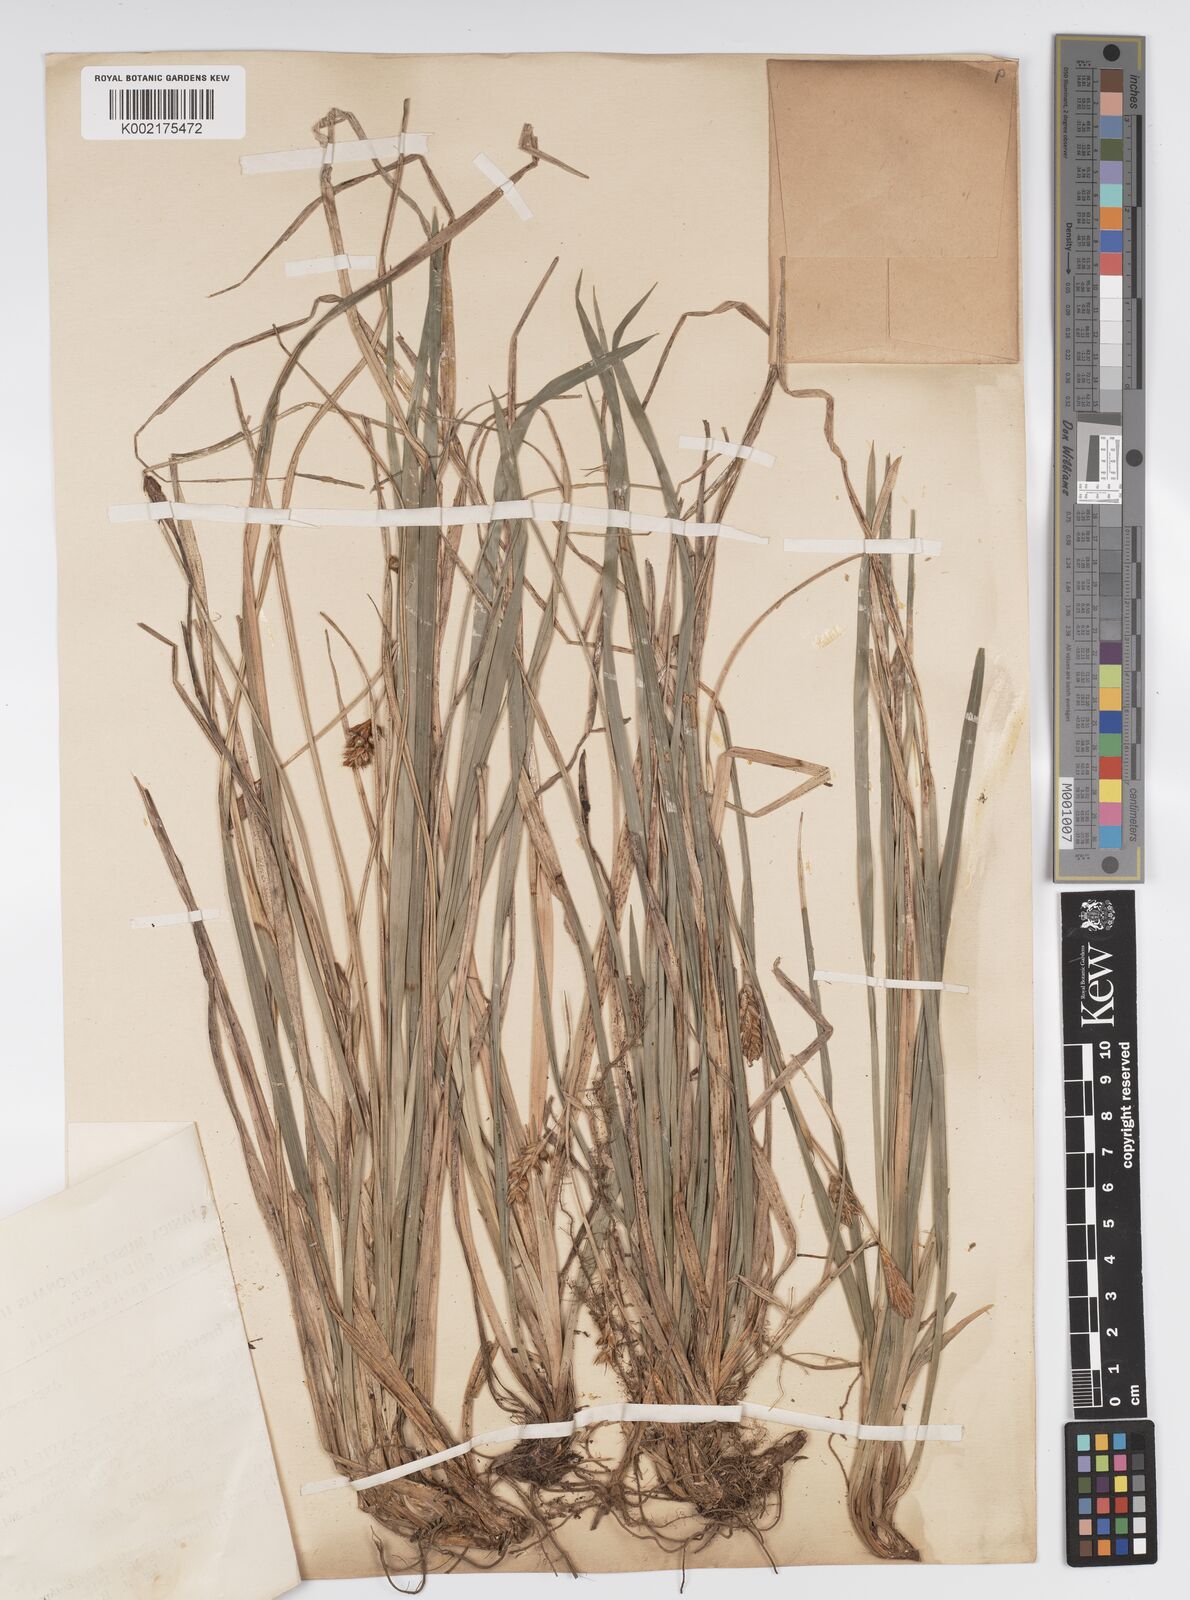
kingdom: Plantae
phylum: Tracheophyta
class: Liliopsida
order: Poales
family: Cyperaceae
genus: Carex
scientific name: Carex brevicollis
